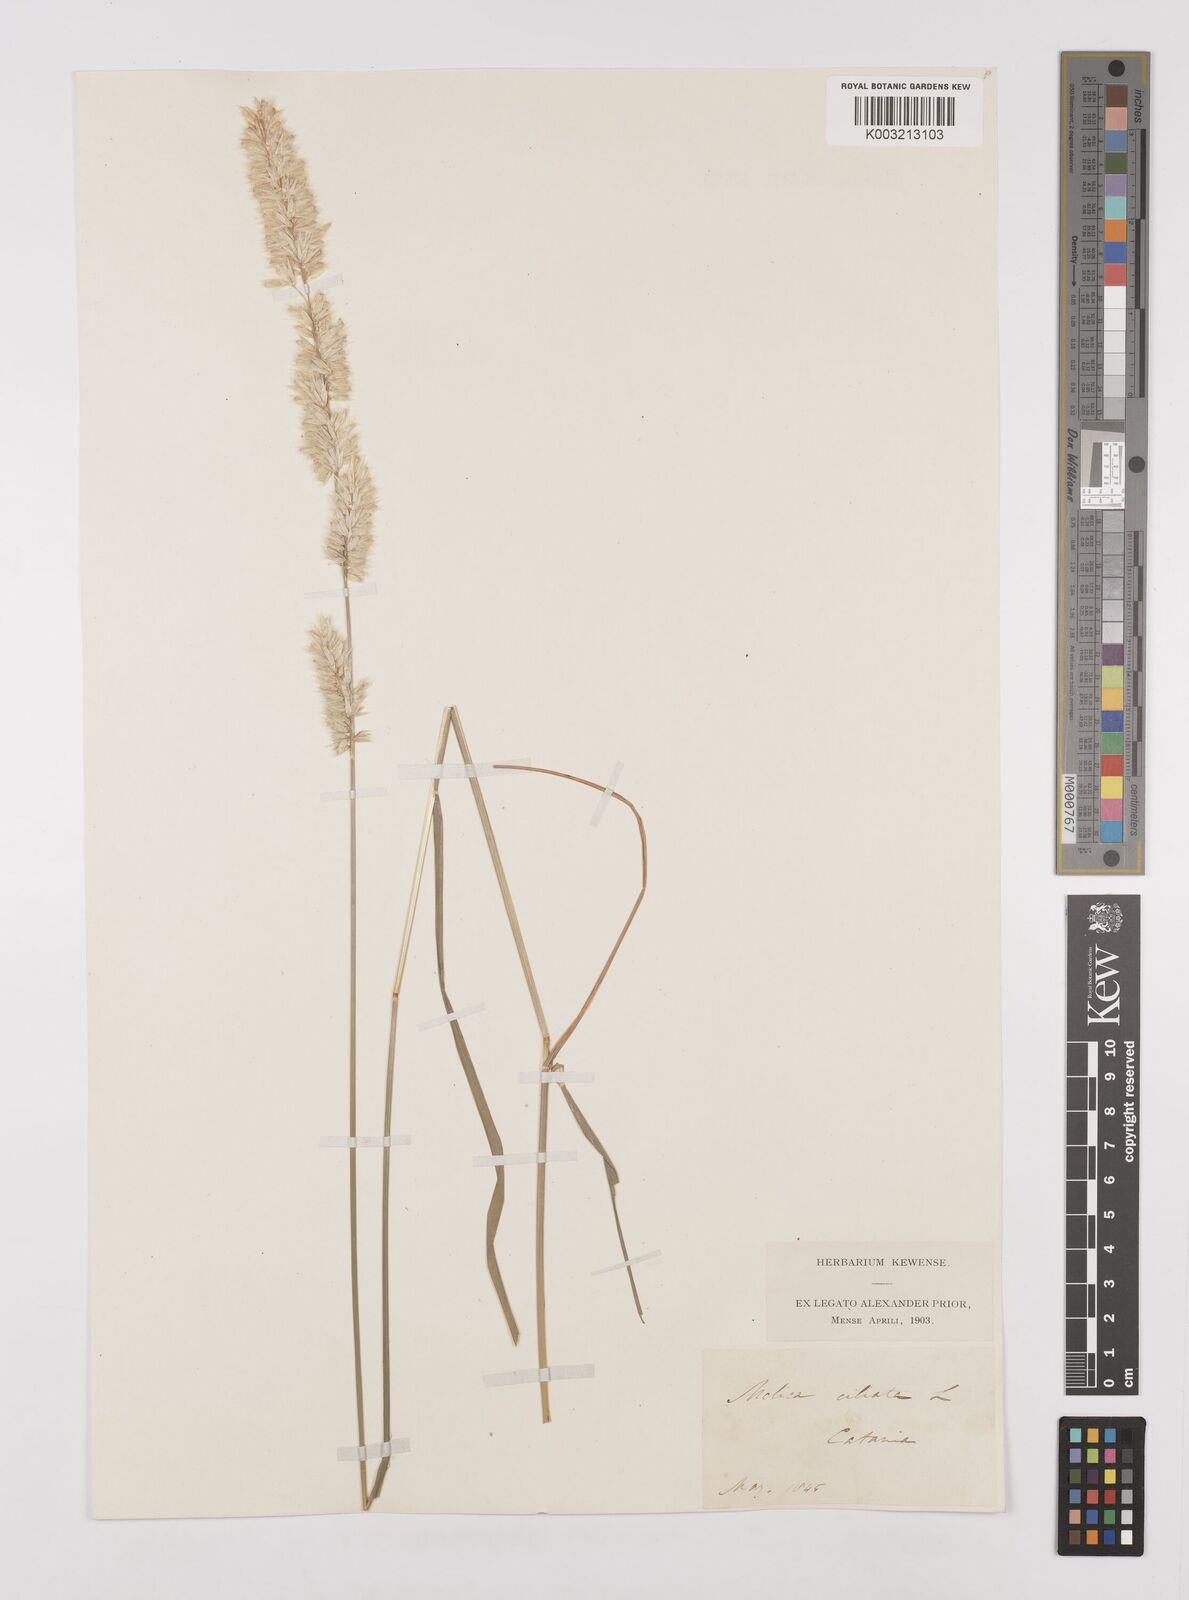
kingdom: Plantae
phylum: Tracheophyta
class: Liliopsida
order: Poales
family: Poaceae
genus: Melica
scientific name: Melica ciliata
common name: Hairy melicgrass
